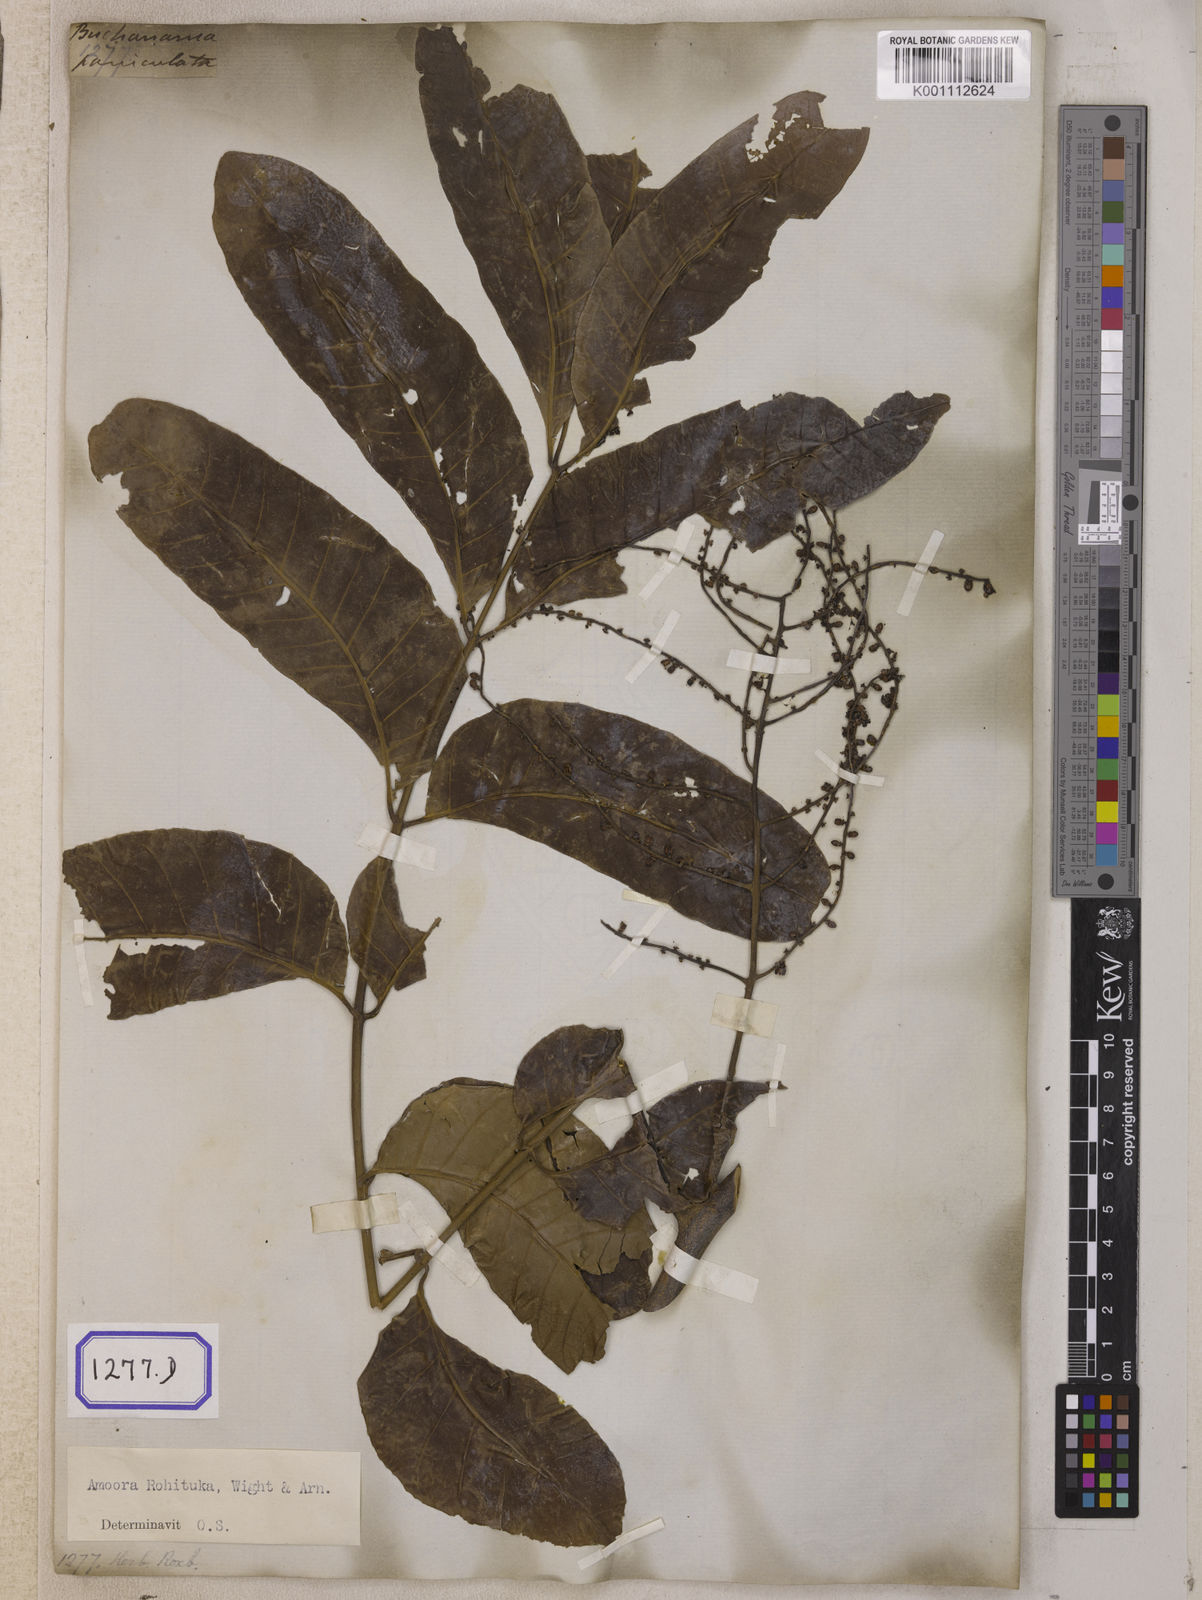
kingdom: Plantae
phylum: Tracheophyta
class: Magnoliopsida
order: Sapindales
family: Meliaceae
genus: Aphanamixis
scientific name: Aphanamixis polystachya
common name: Pithraj tree
